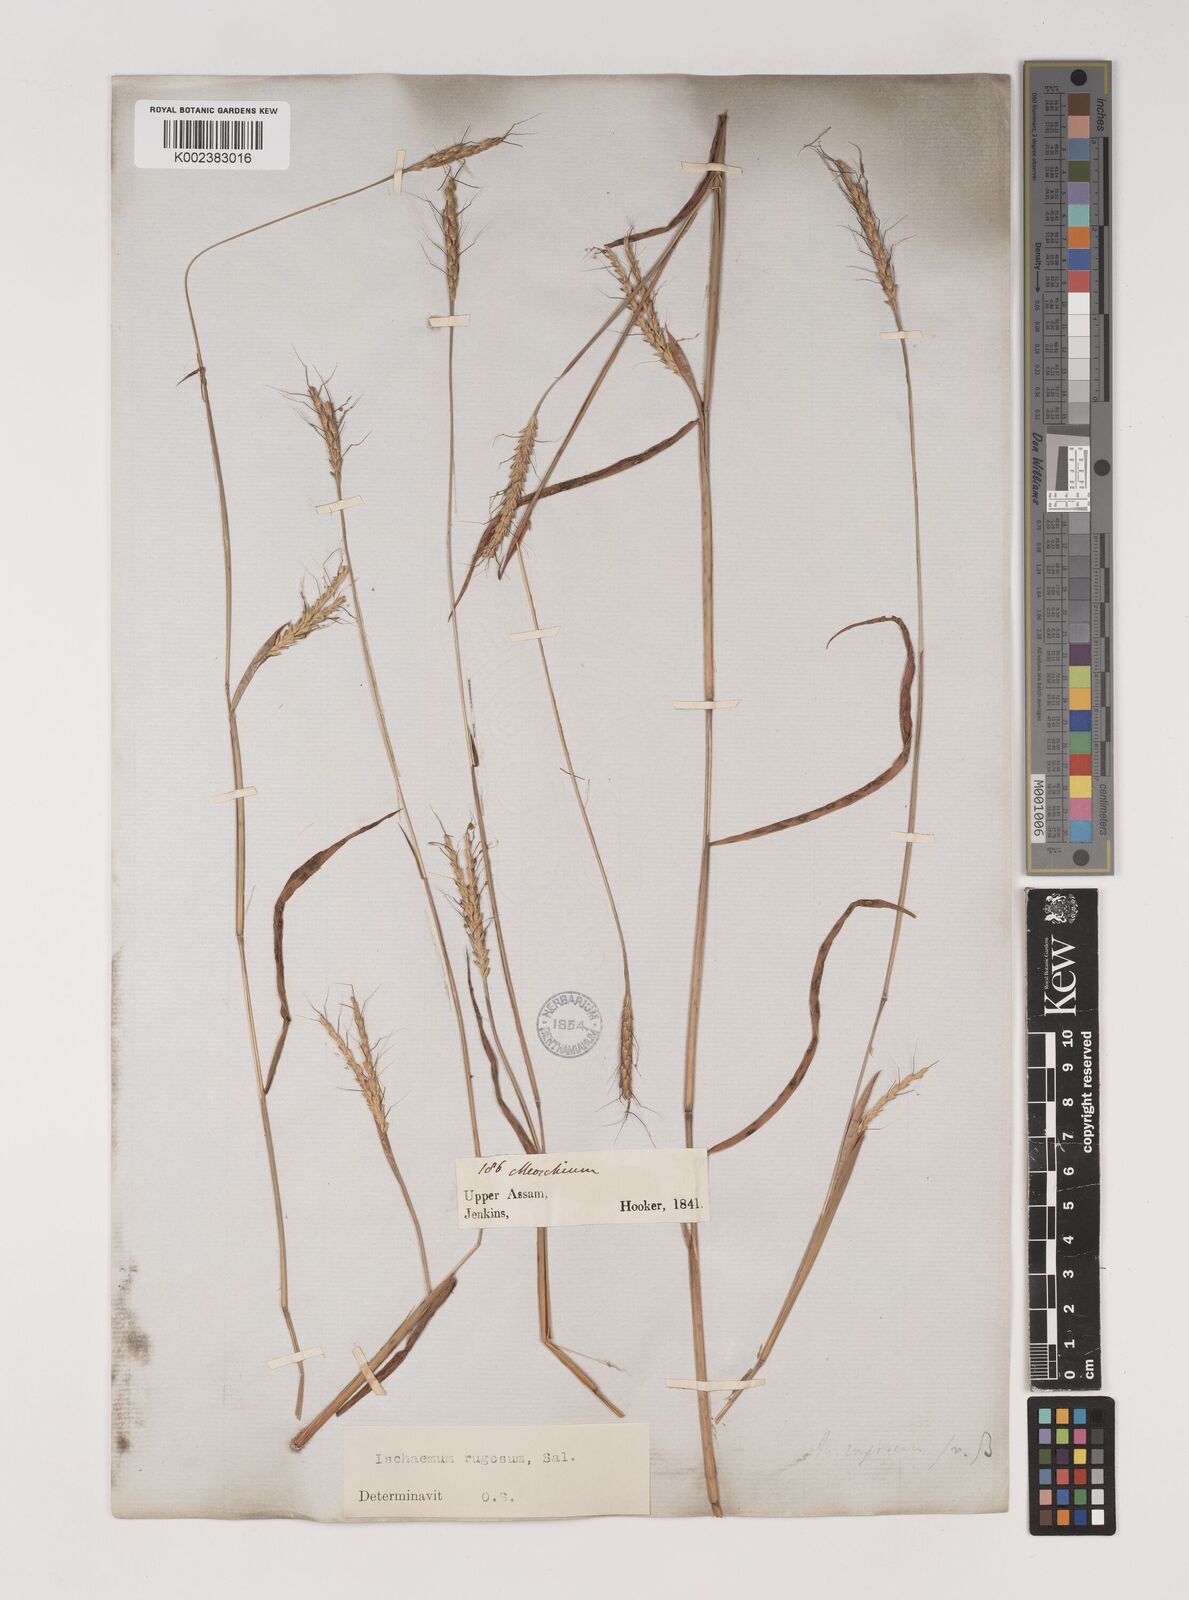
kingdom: Plantae
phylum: Tracheophyta
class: Liliopsida
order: Poales
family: Poaceae
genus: Ischaemum
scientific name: Ischaemum rugosum
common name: Saramatta grass
